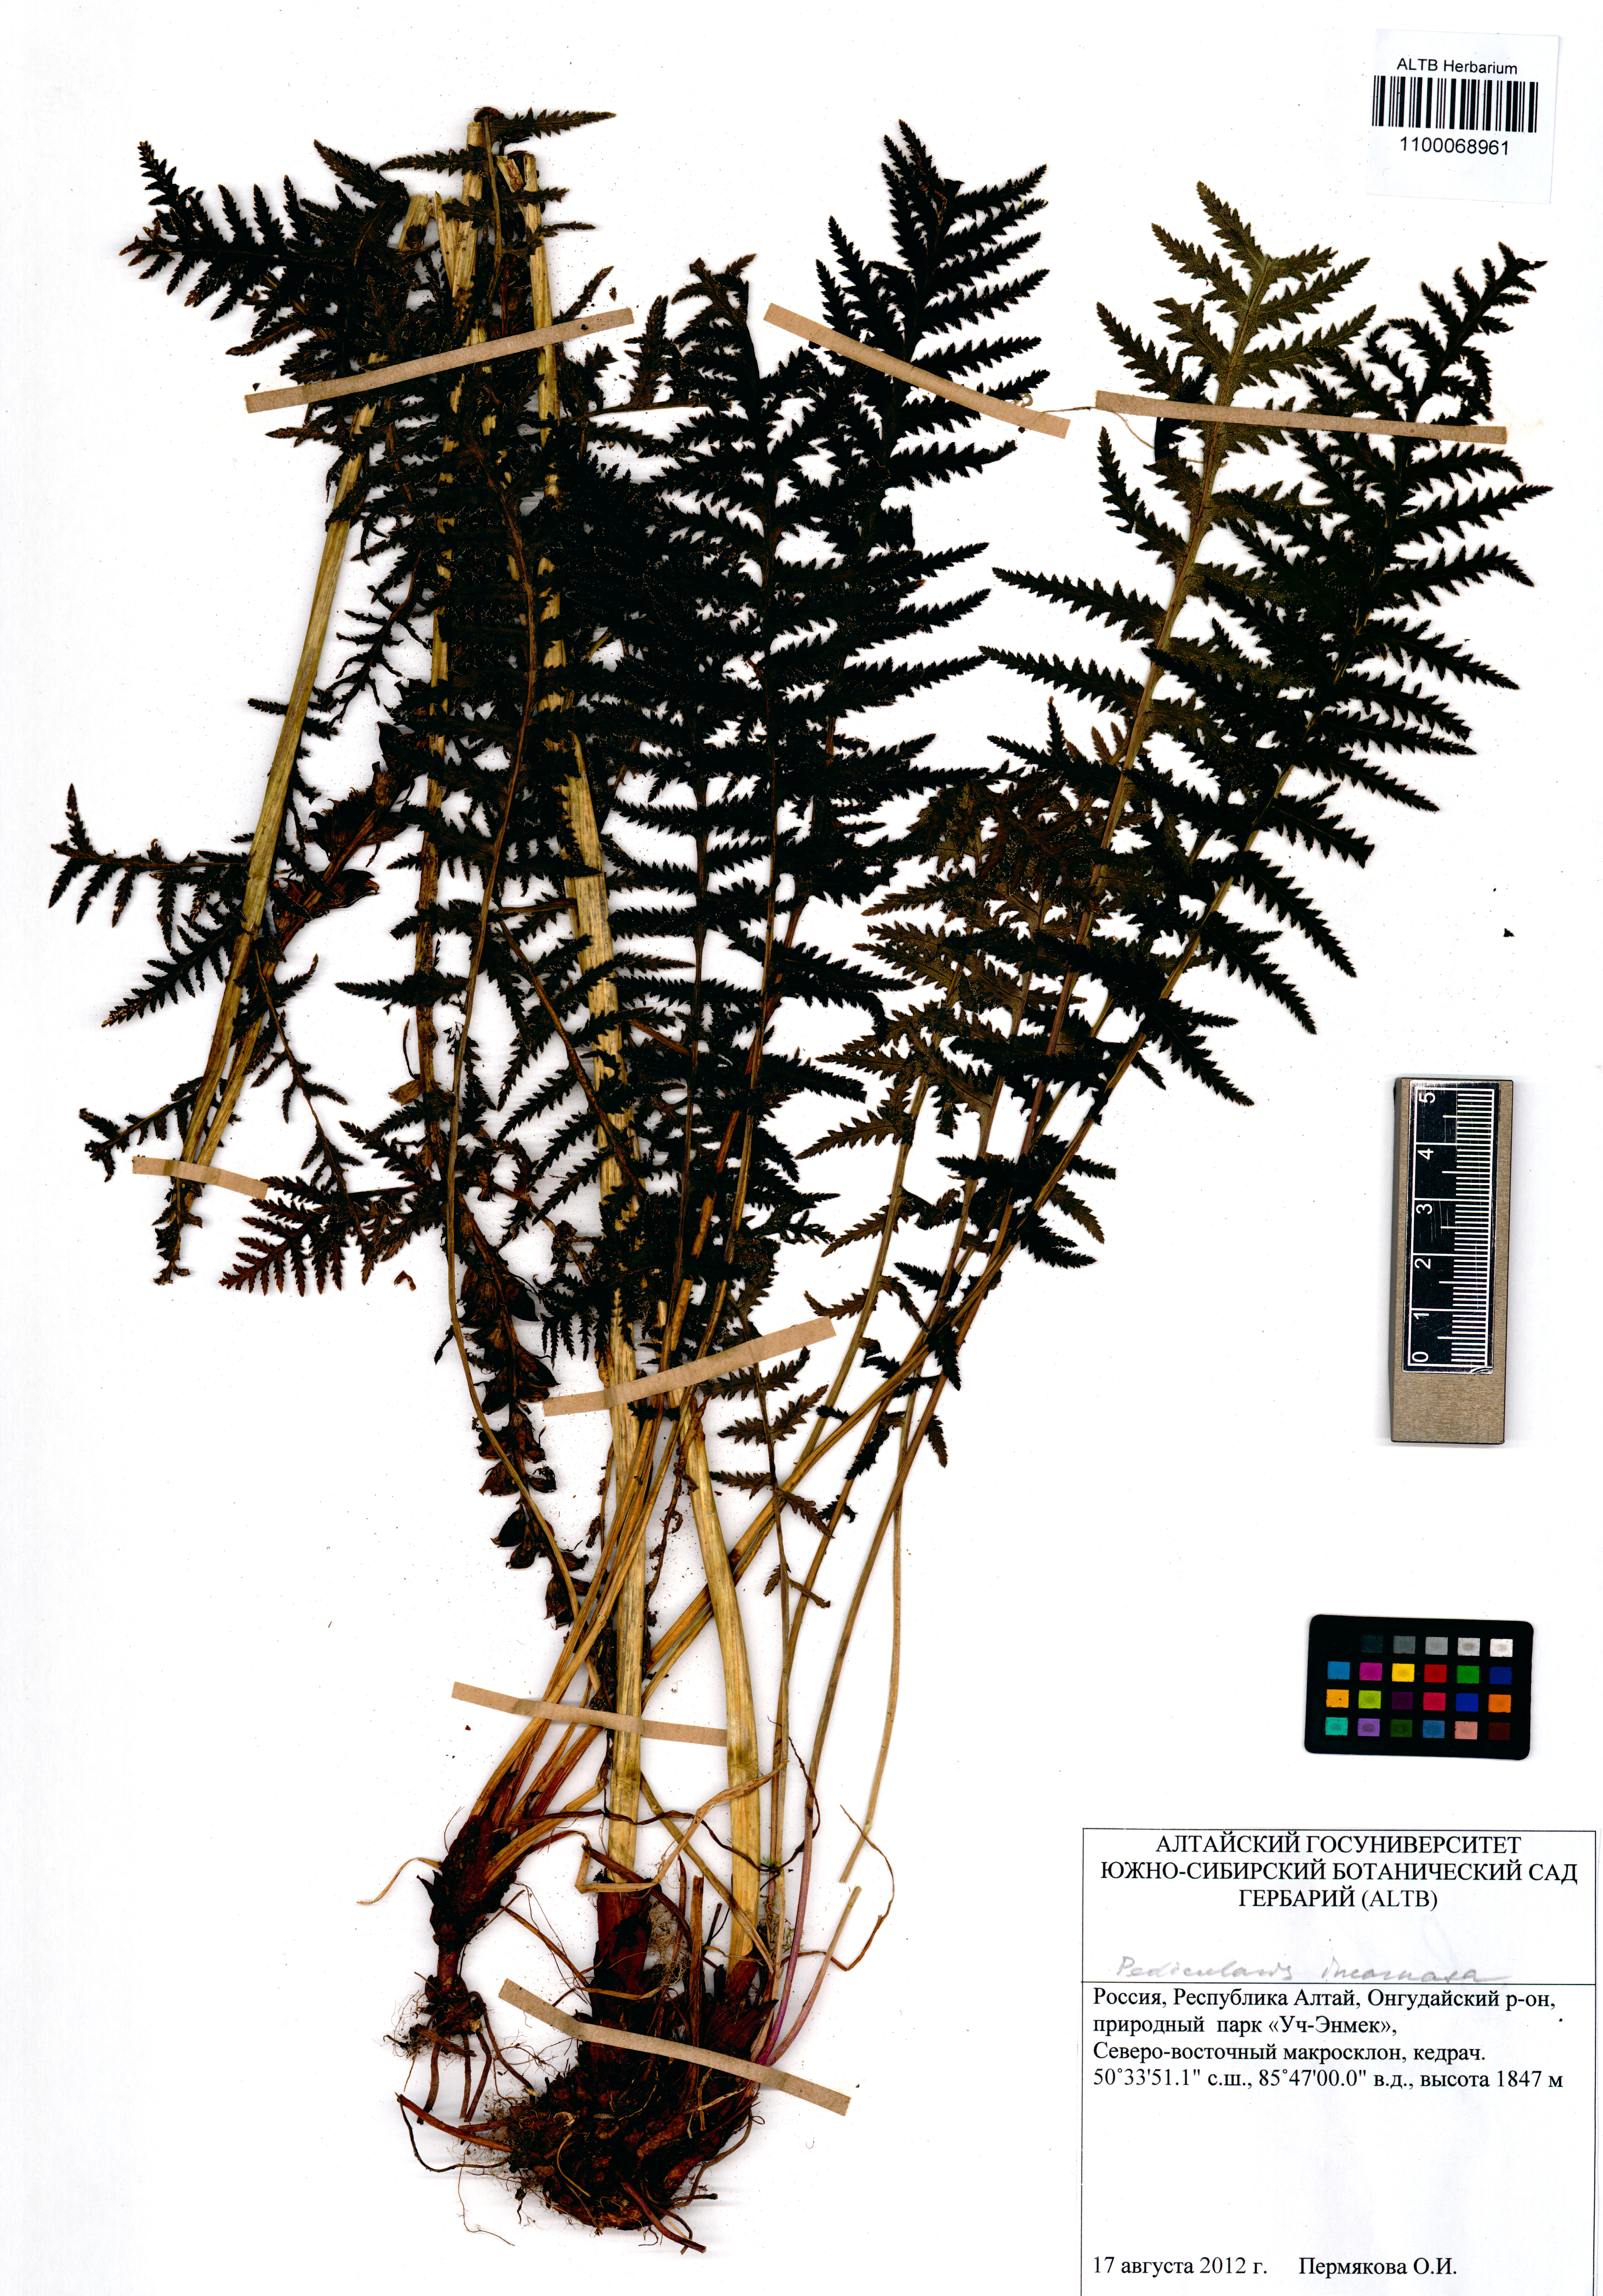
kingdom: Plantae
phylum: Tracheophyta
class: Magnoliopsida
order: Lamiales
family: Orobanchaceae
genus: Pedicularis
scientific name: Pedicularis incarnata
